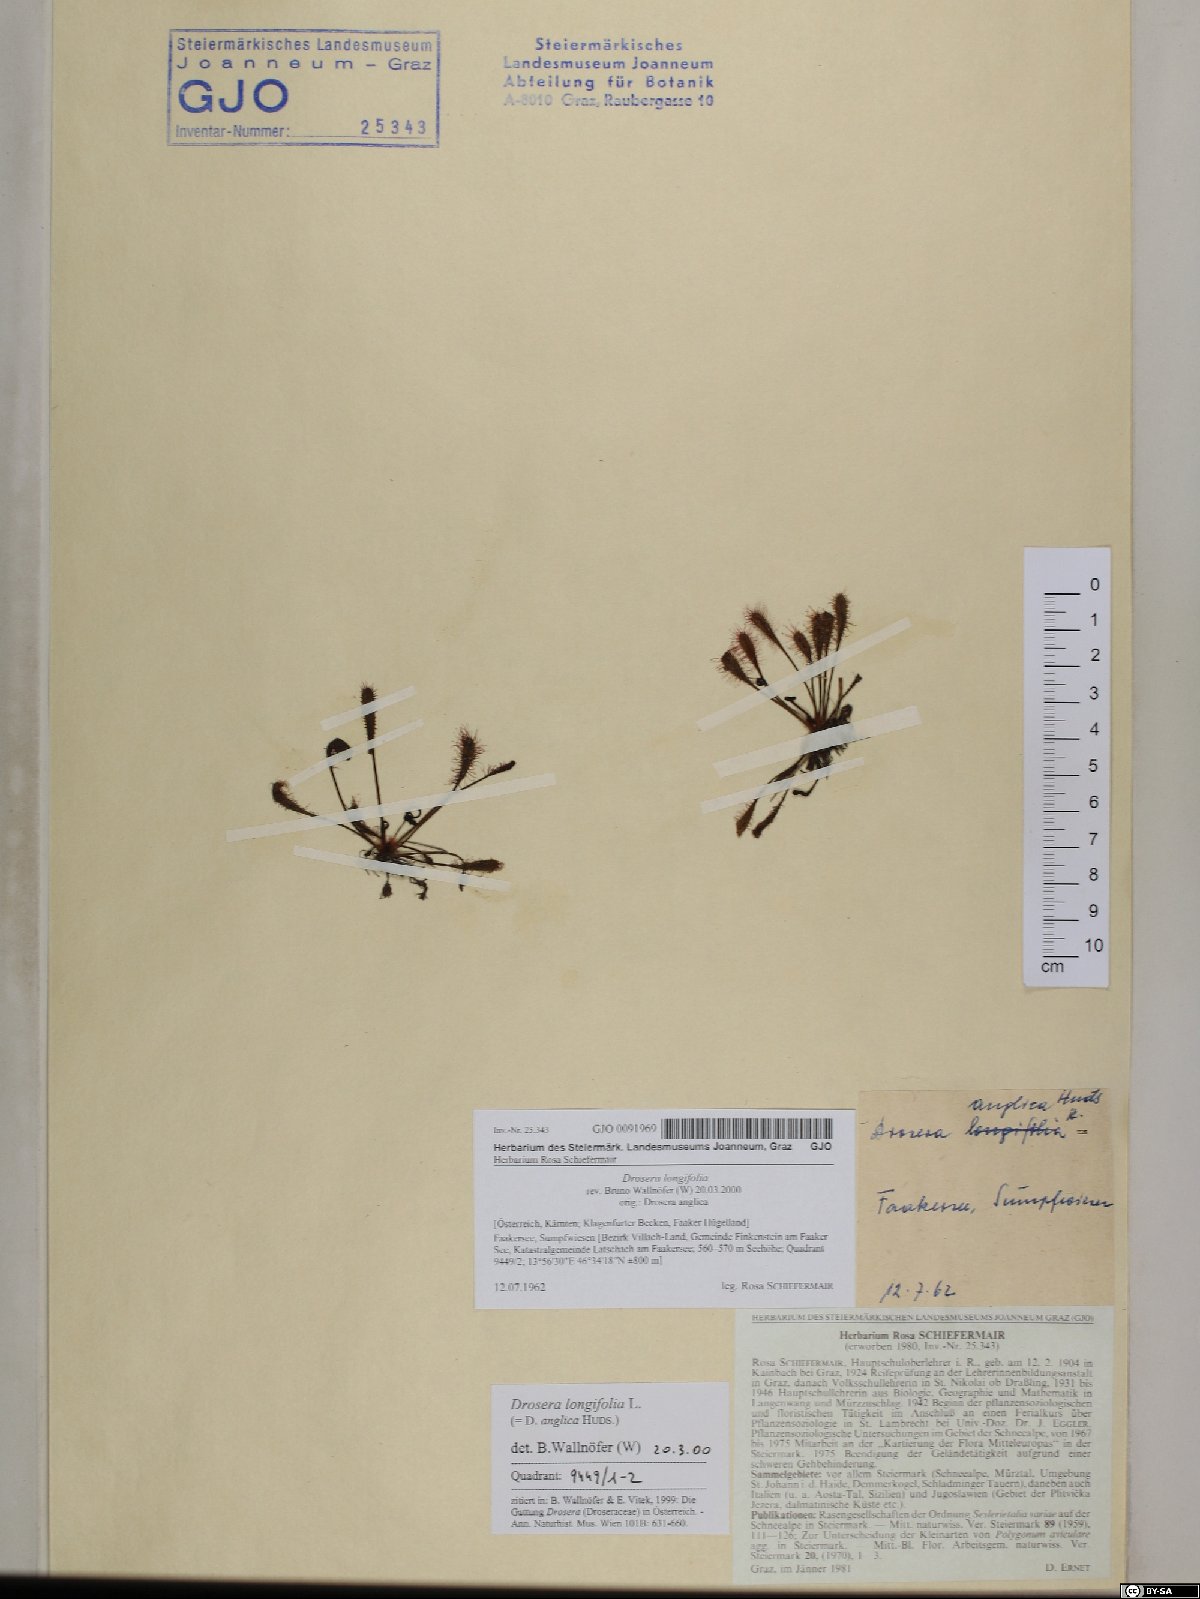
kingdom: Plantae
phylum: Tracheophyta
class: Magnoliopsida
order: Caryophyllales
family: Droseraceae
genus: Drosera
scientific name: Drosera anglica
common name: Great sundew
